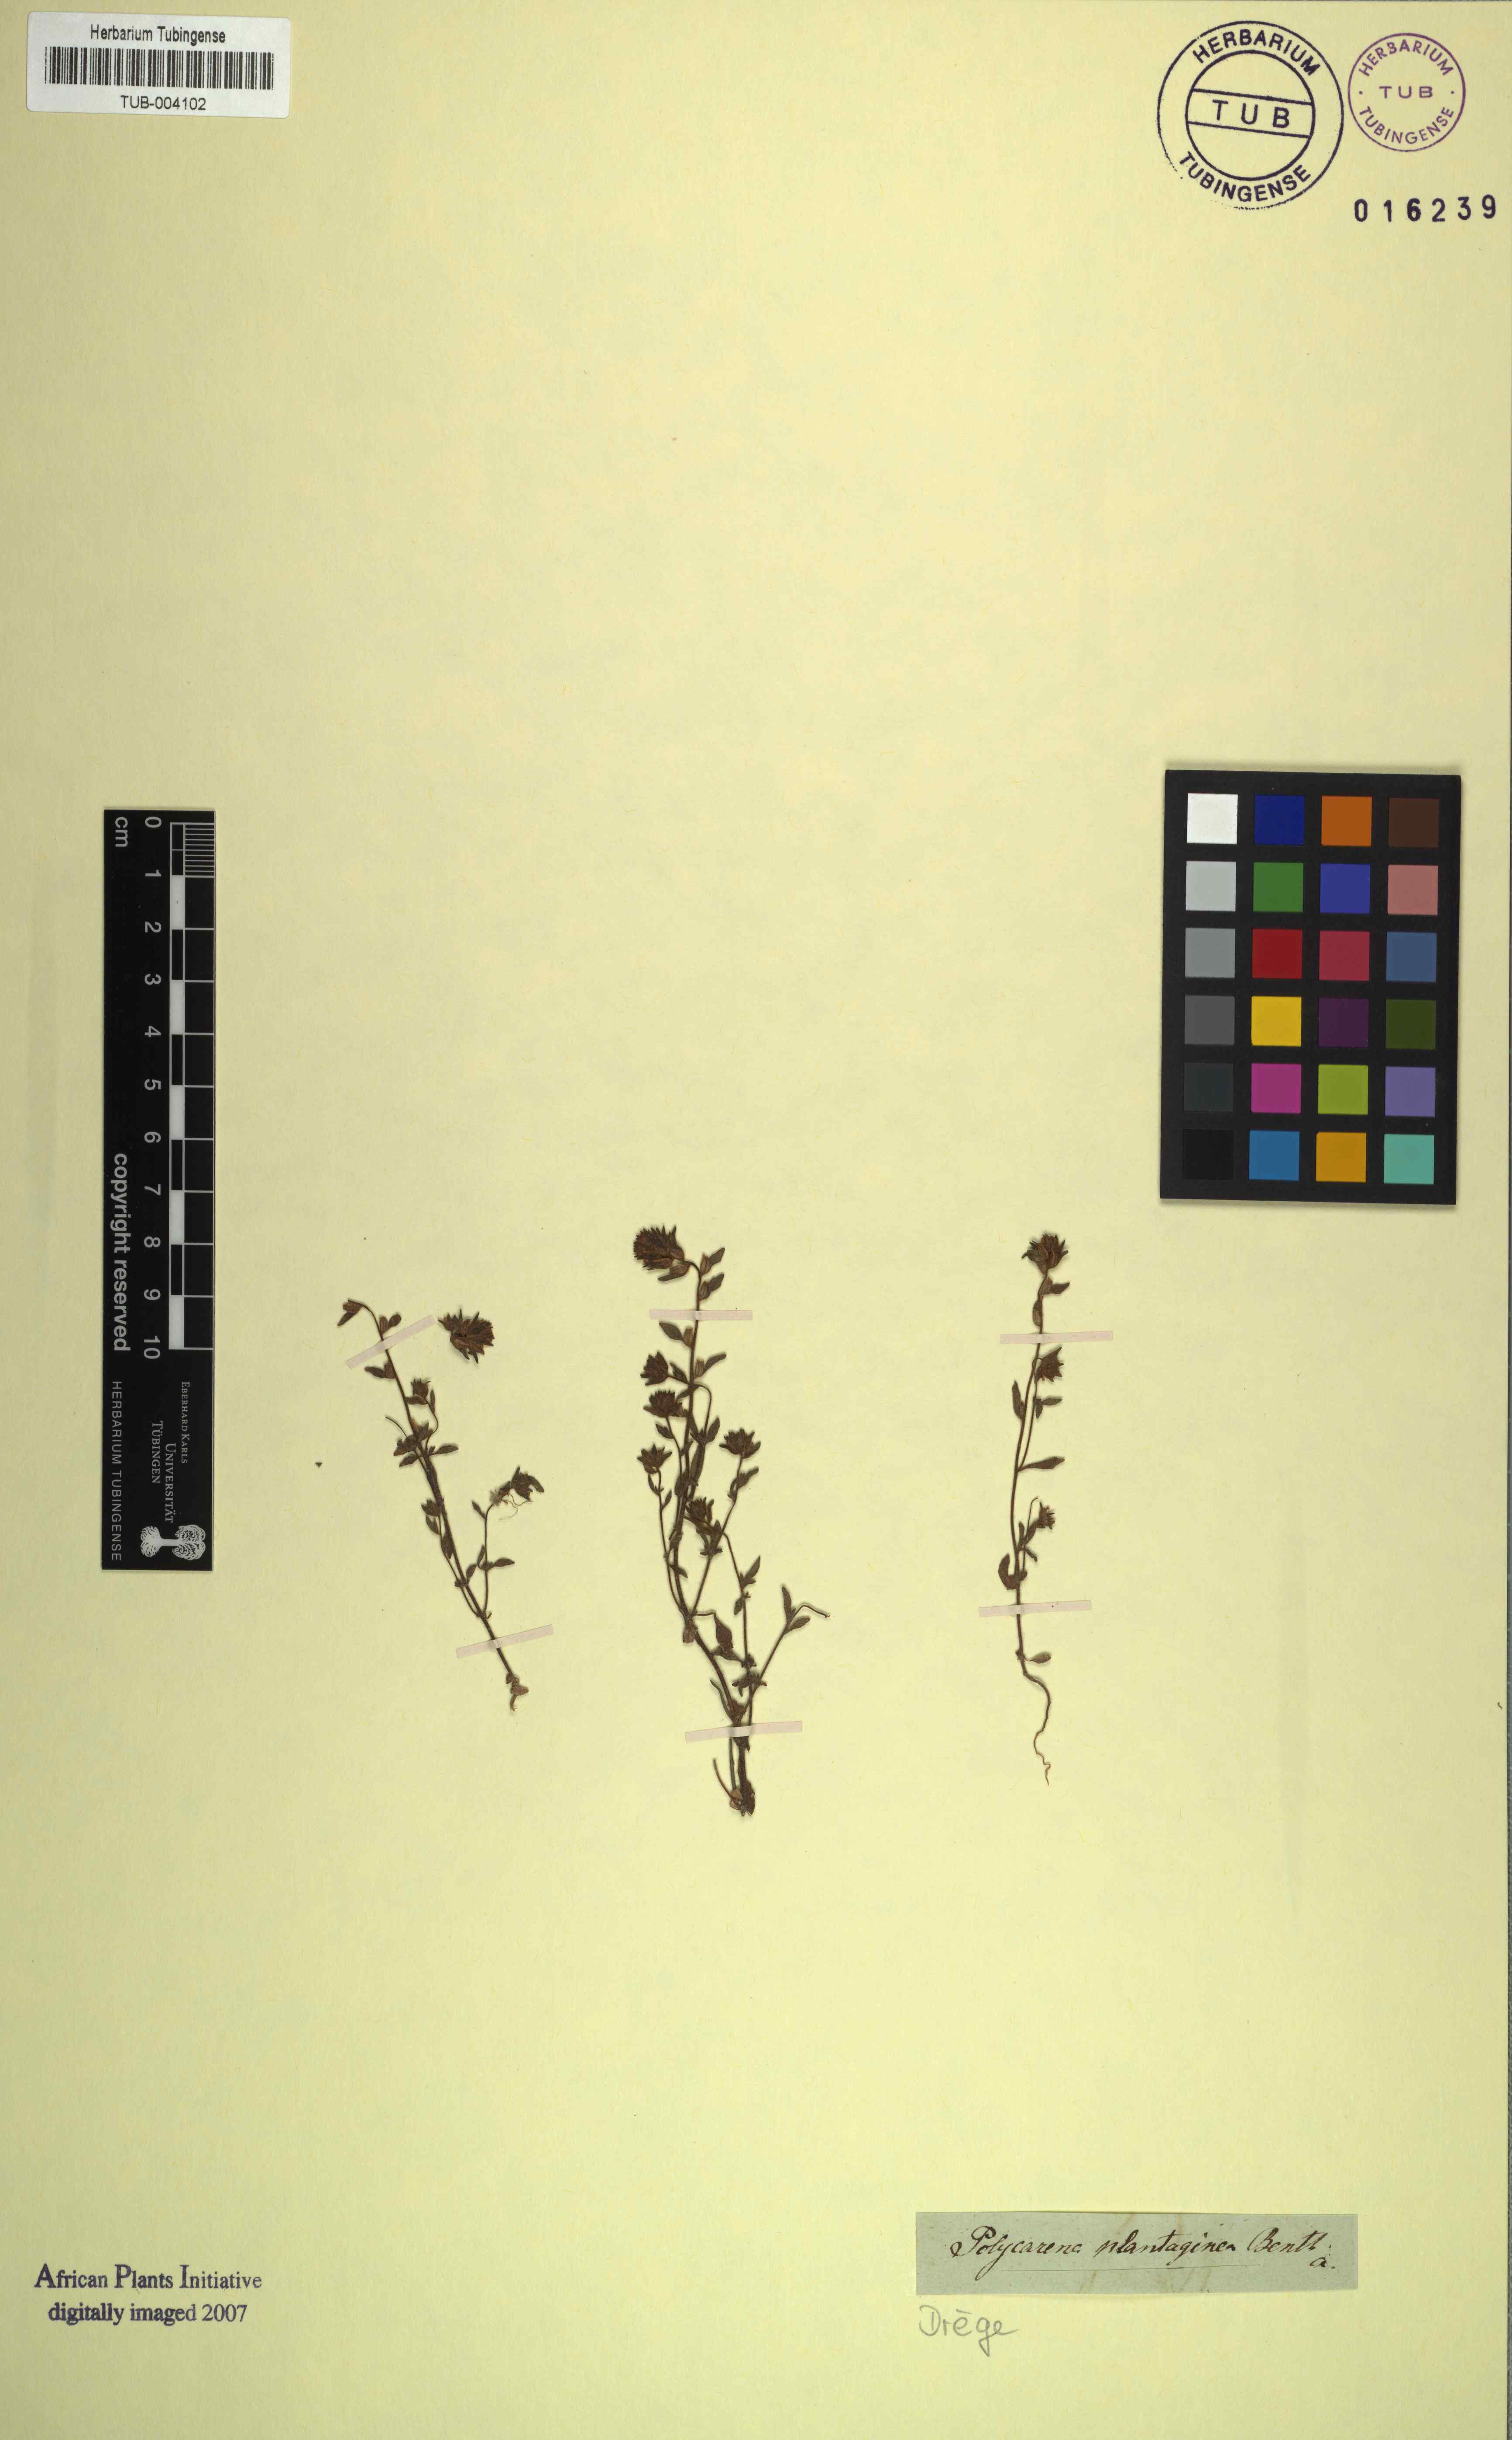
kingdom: Plantae
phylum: Tracheophyta
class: Magnoliopsida
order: Lamiales
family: Scrophulariaceae
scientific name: Scrophulariaceae
